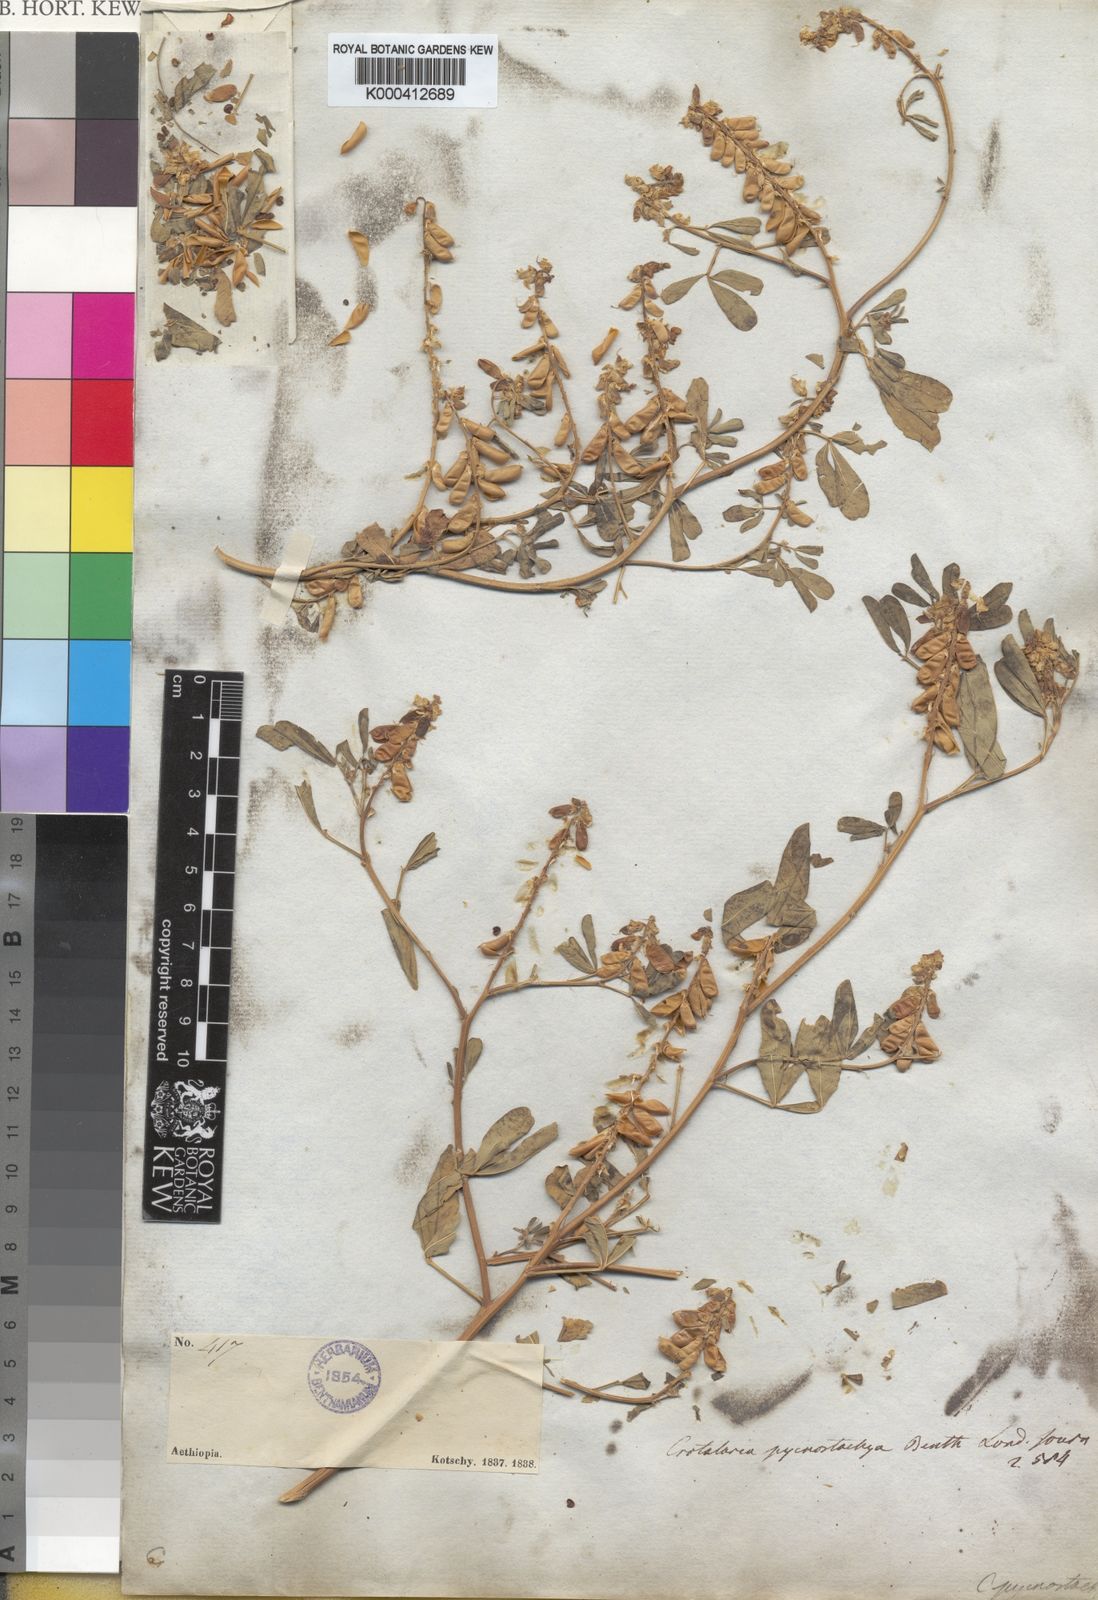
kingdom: Plantae
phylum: Tracheophyta
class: Magnoliopsida
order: Fabales
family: Fabaceae
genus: Crotalaria
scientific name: Crotalaria pycnostachya
